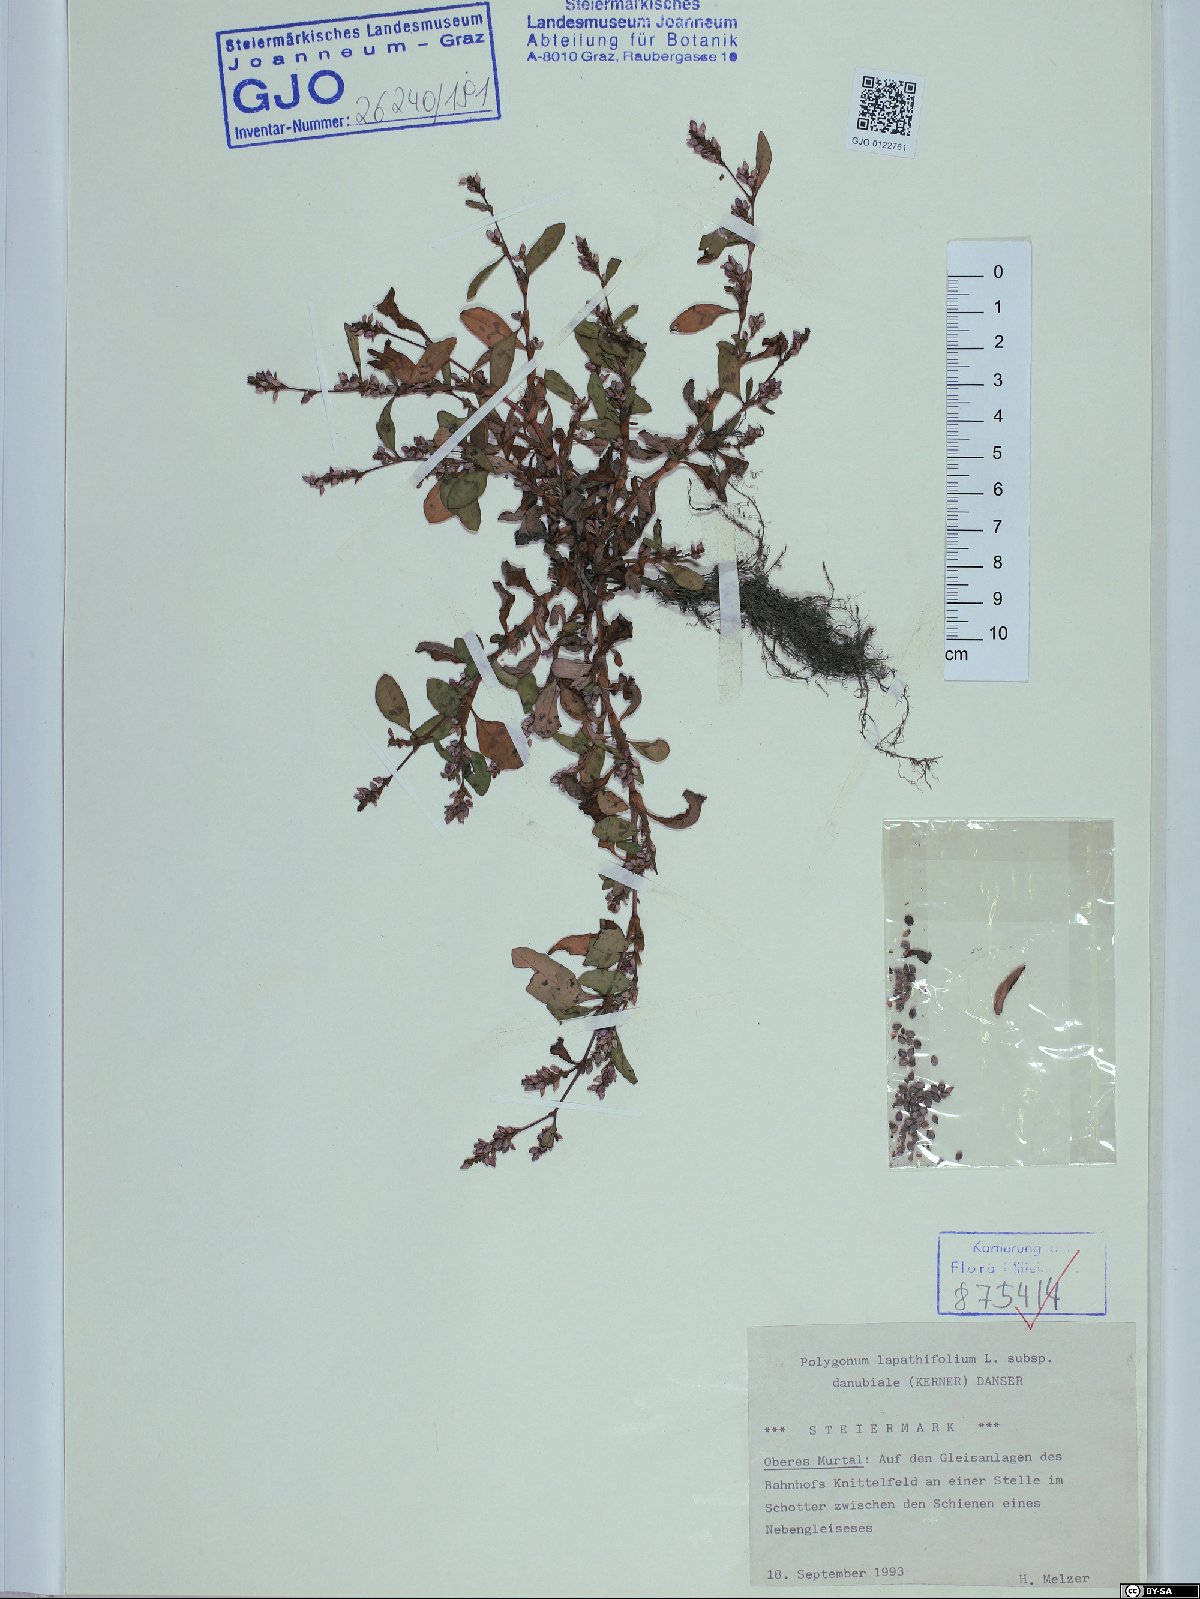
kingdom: Plantae
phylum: Tracheophyta
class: Magnoliopsida
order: Caryophyllales
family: Polygonaceae
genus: Persicaria
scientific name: Persicaria lapathifolia
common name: Curlytop knotweed
